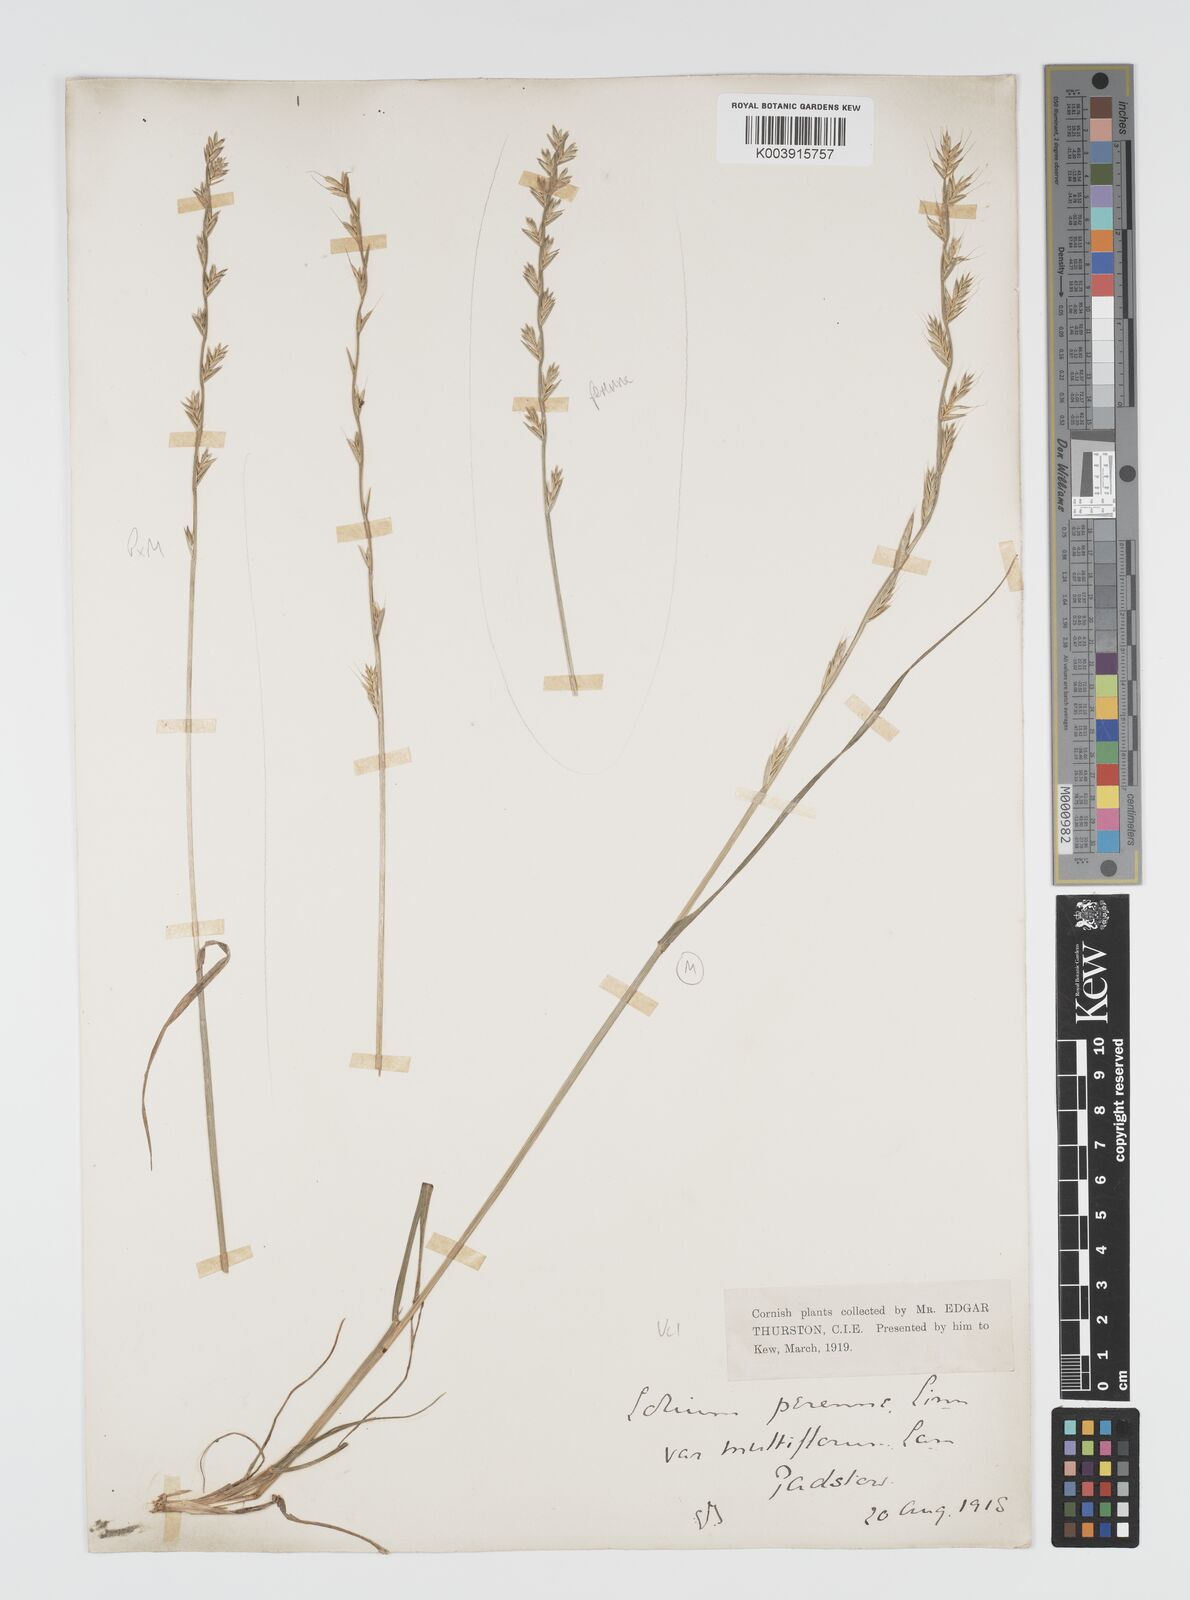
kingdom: Plantae
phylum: Tracheophyta
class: Liliopsida
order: Poales
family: Poaceae
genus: Lolium
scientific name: Lolium multiflorum
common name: Annual ryegrass
